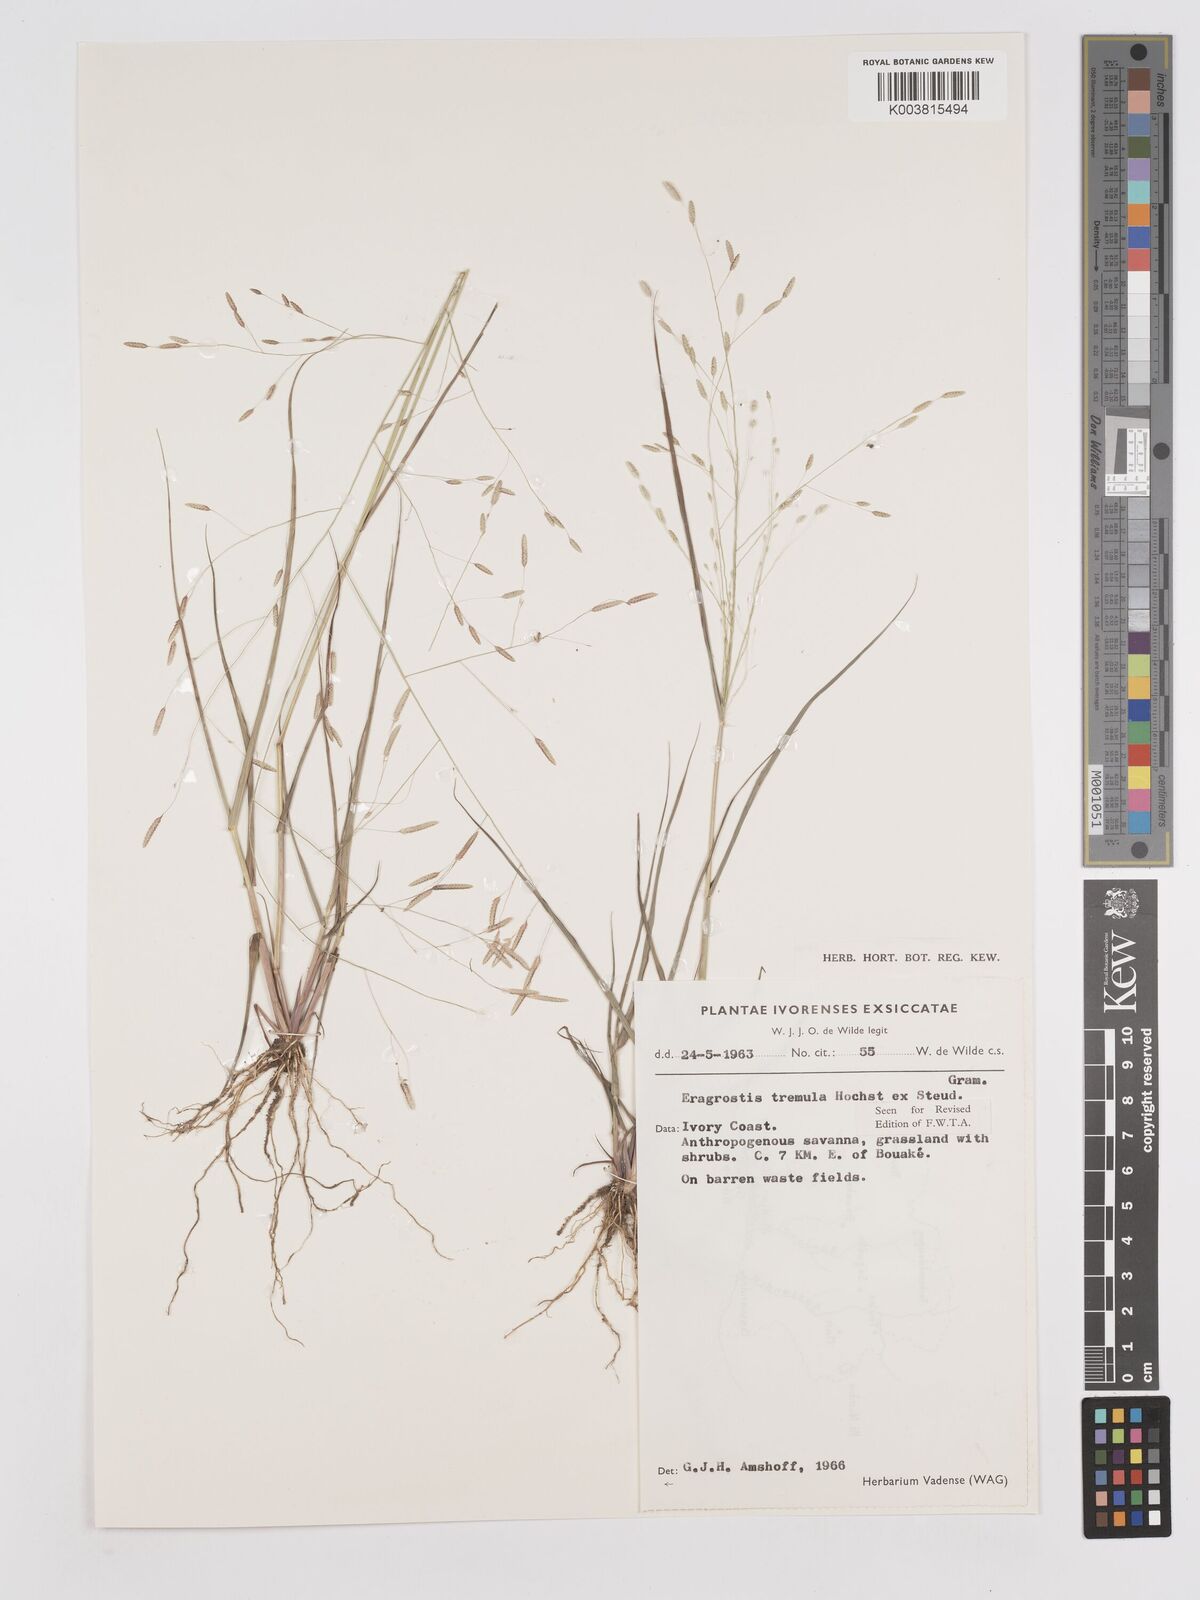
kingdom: Plantae
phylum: Tracheophyta
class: Liliopsida
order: Poales
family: Poaceae
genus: Eragrostis
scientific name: Eragrostis tremula
